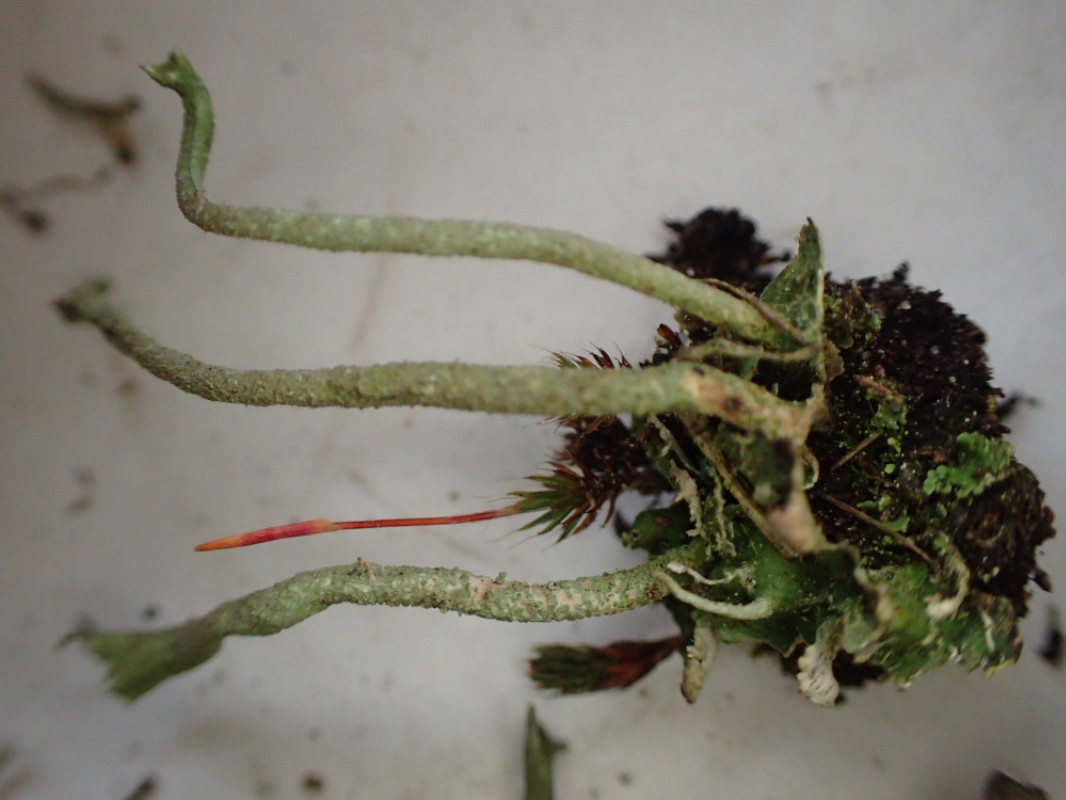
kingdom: Fungi
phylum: Ascomycota
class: Lecanoromycetes
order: Lecanorales
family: Cladoniaceae
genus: Cladonia
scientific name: Cladonia ochrochlora
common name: stød-bægerlav
